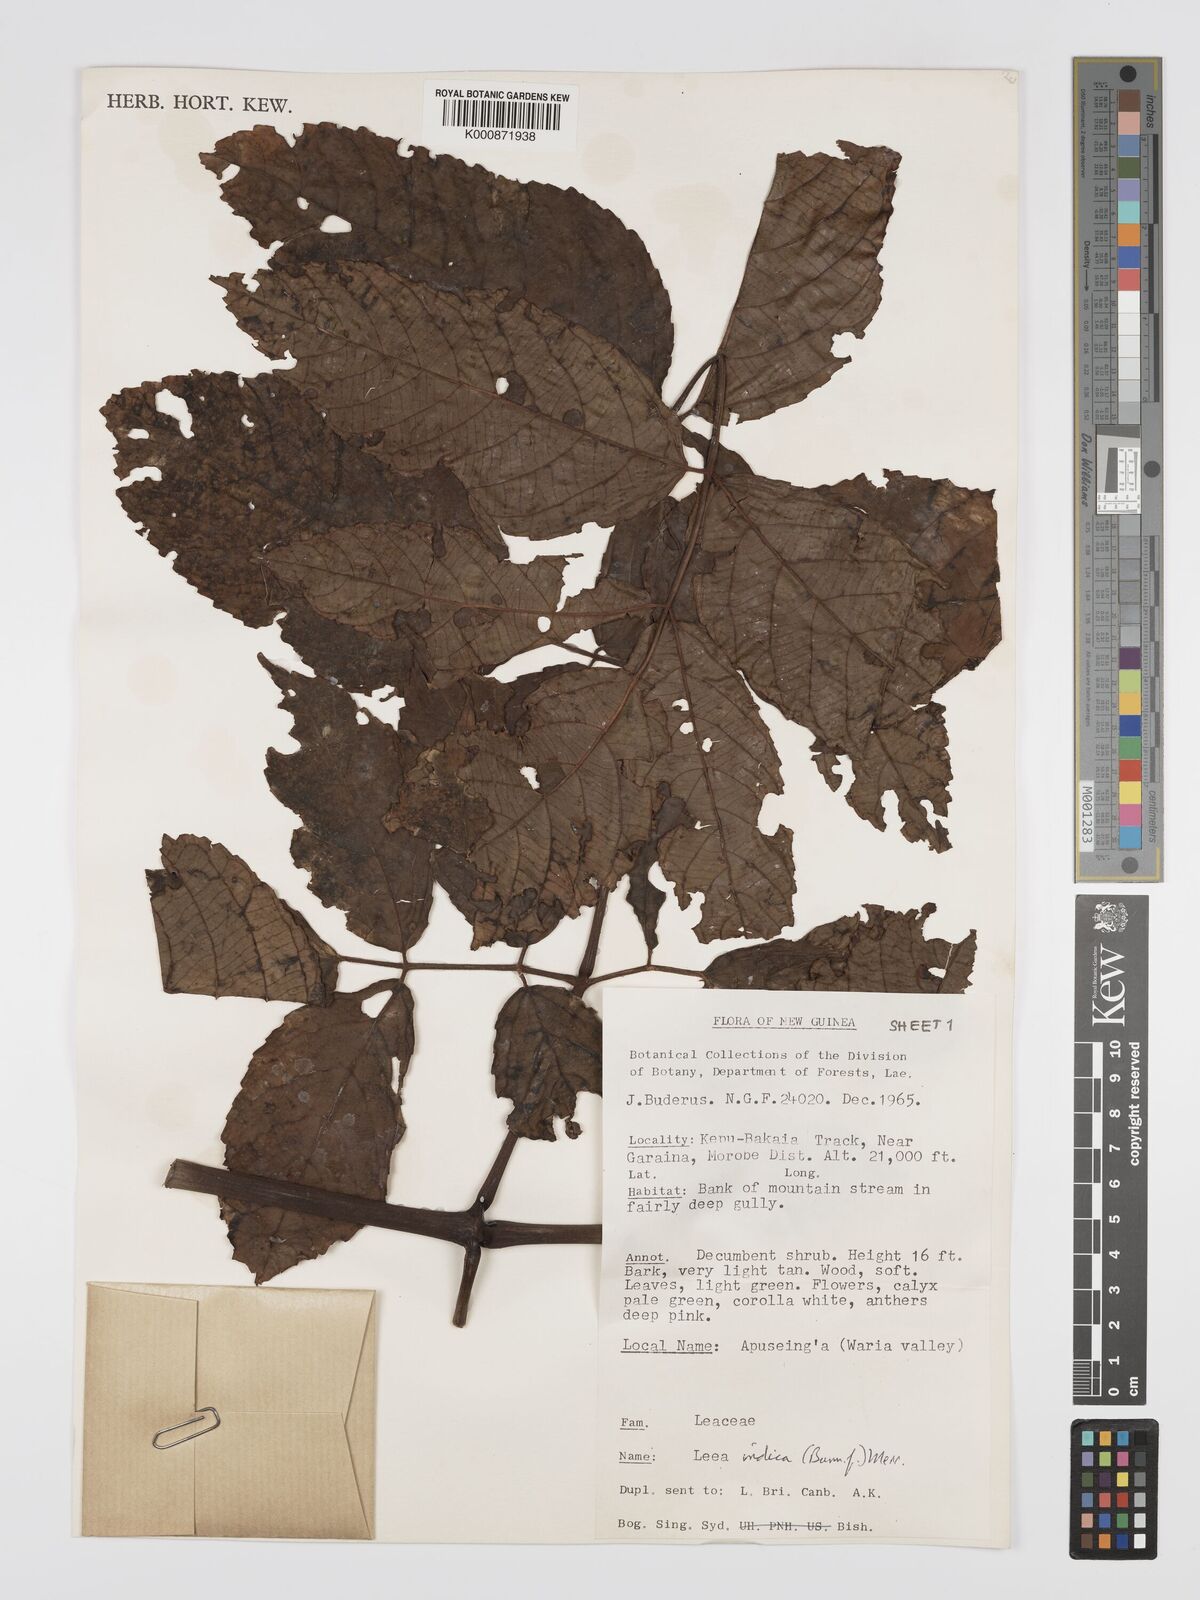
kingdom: Plantae
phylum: Tracheophyta
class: Magnoliopsida
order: Vitales
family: Vitaceae
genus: Leea
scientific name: Leea indica
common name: Bandicoot-berry
